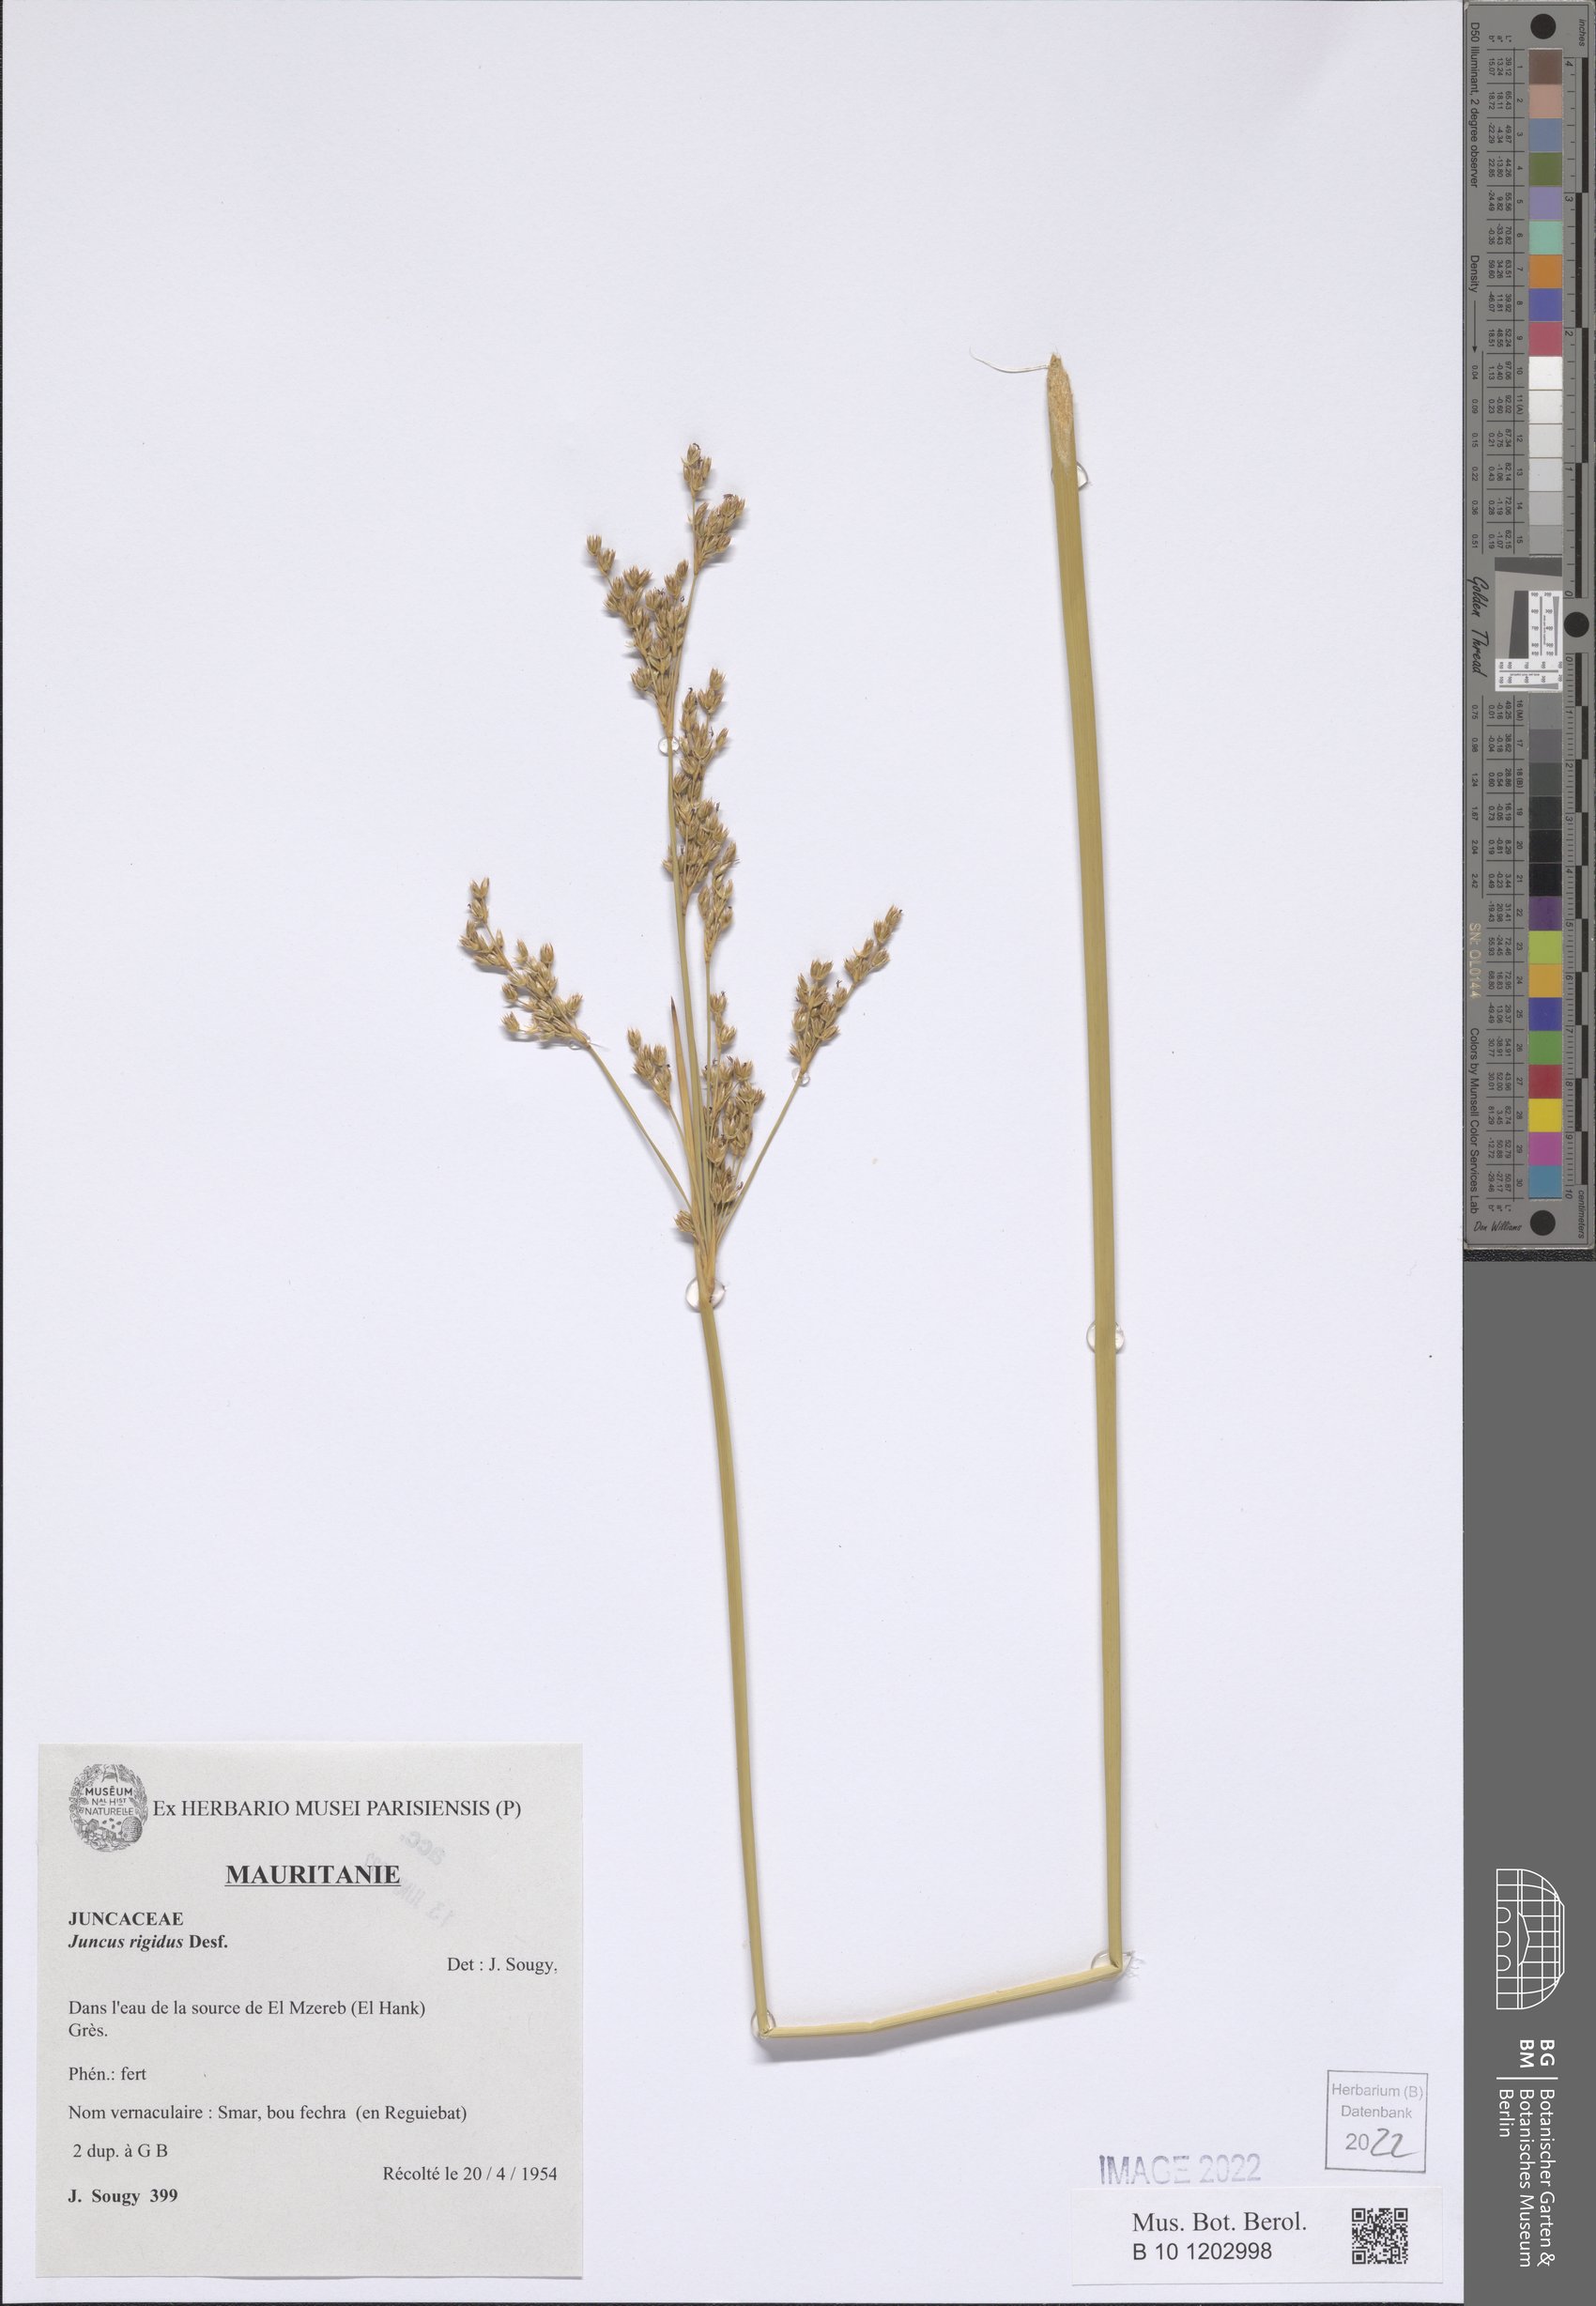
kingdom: Plantae
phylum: Tracheophyta
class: Liliopsida
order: Poales
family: Juncaceae
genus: Juncus
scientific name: Juncus rigidus
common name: Hard sea rush
